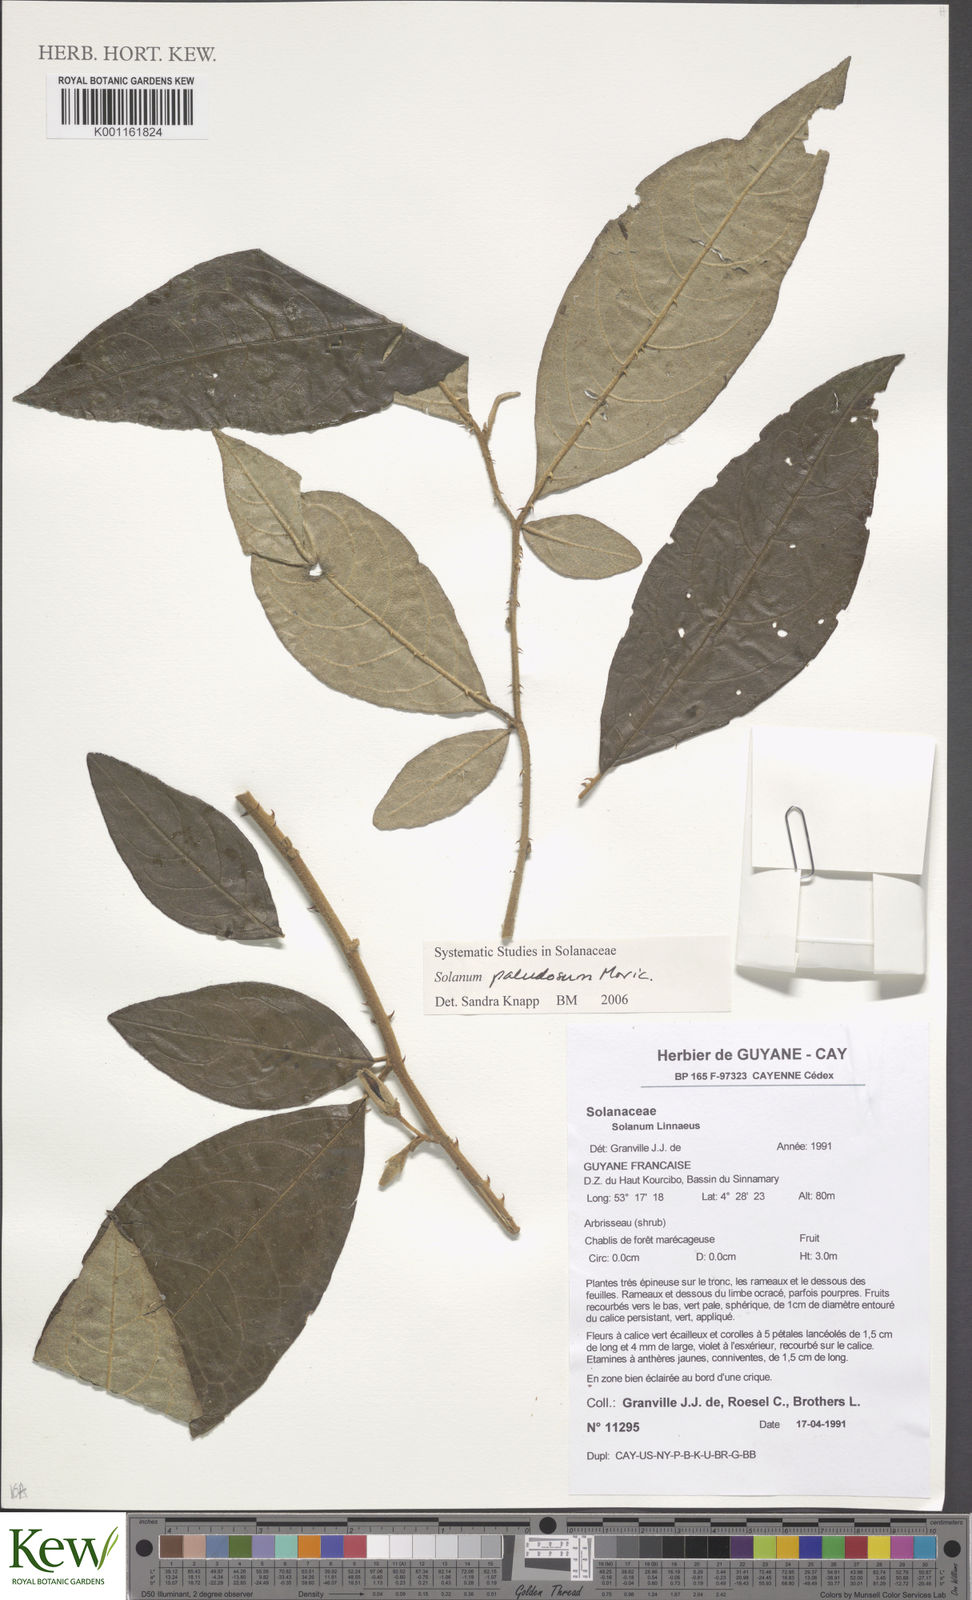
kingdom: Plantae
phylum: Tracheophyta
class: Magnoliopsida
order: Solanales
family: Solanaceae
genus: Solanum
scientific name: Solanum paludosum
